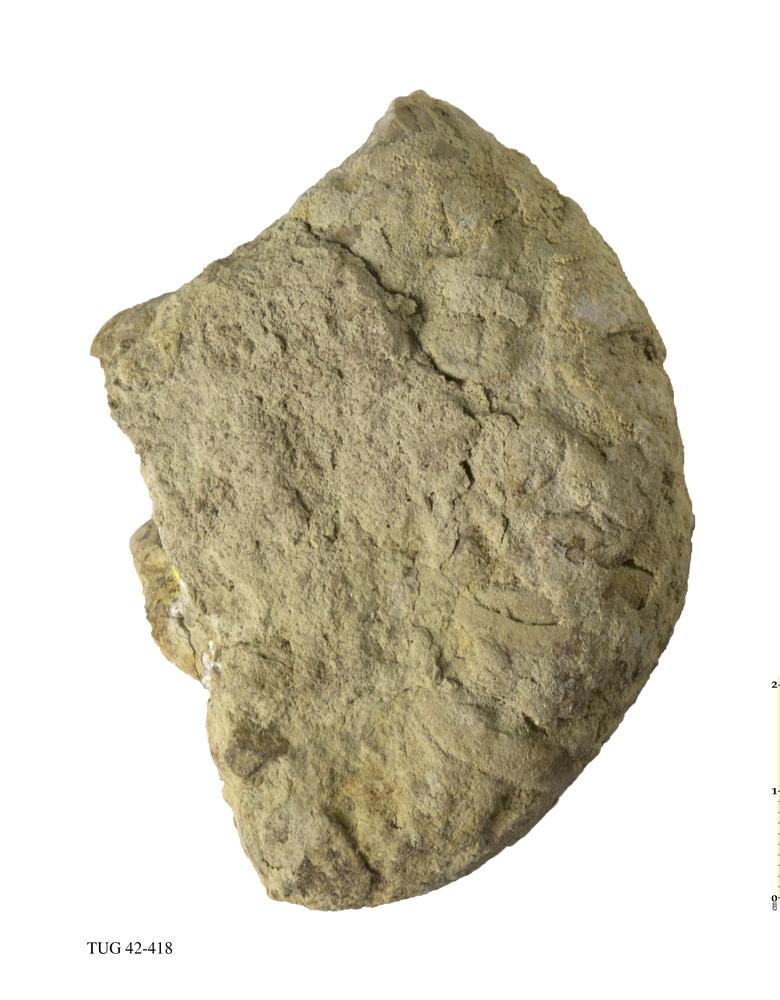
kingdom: Animalia
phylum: Mollusca
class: Cephalopoda
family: Lituitidae
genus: Lituites
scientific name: Lituites
